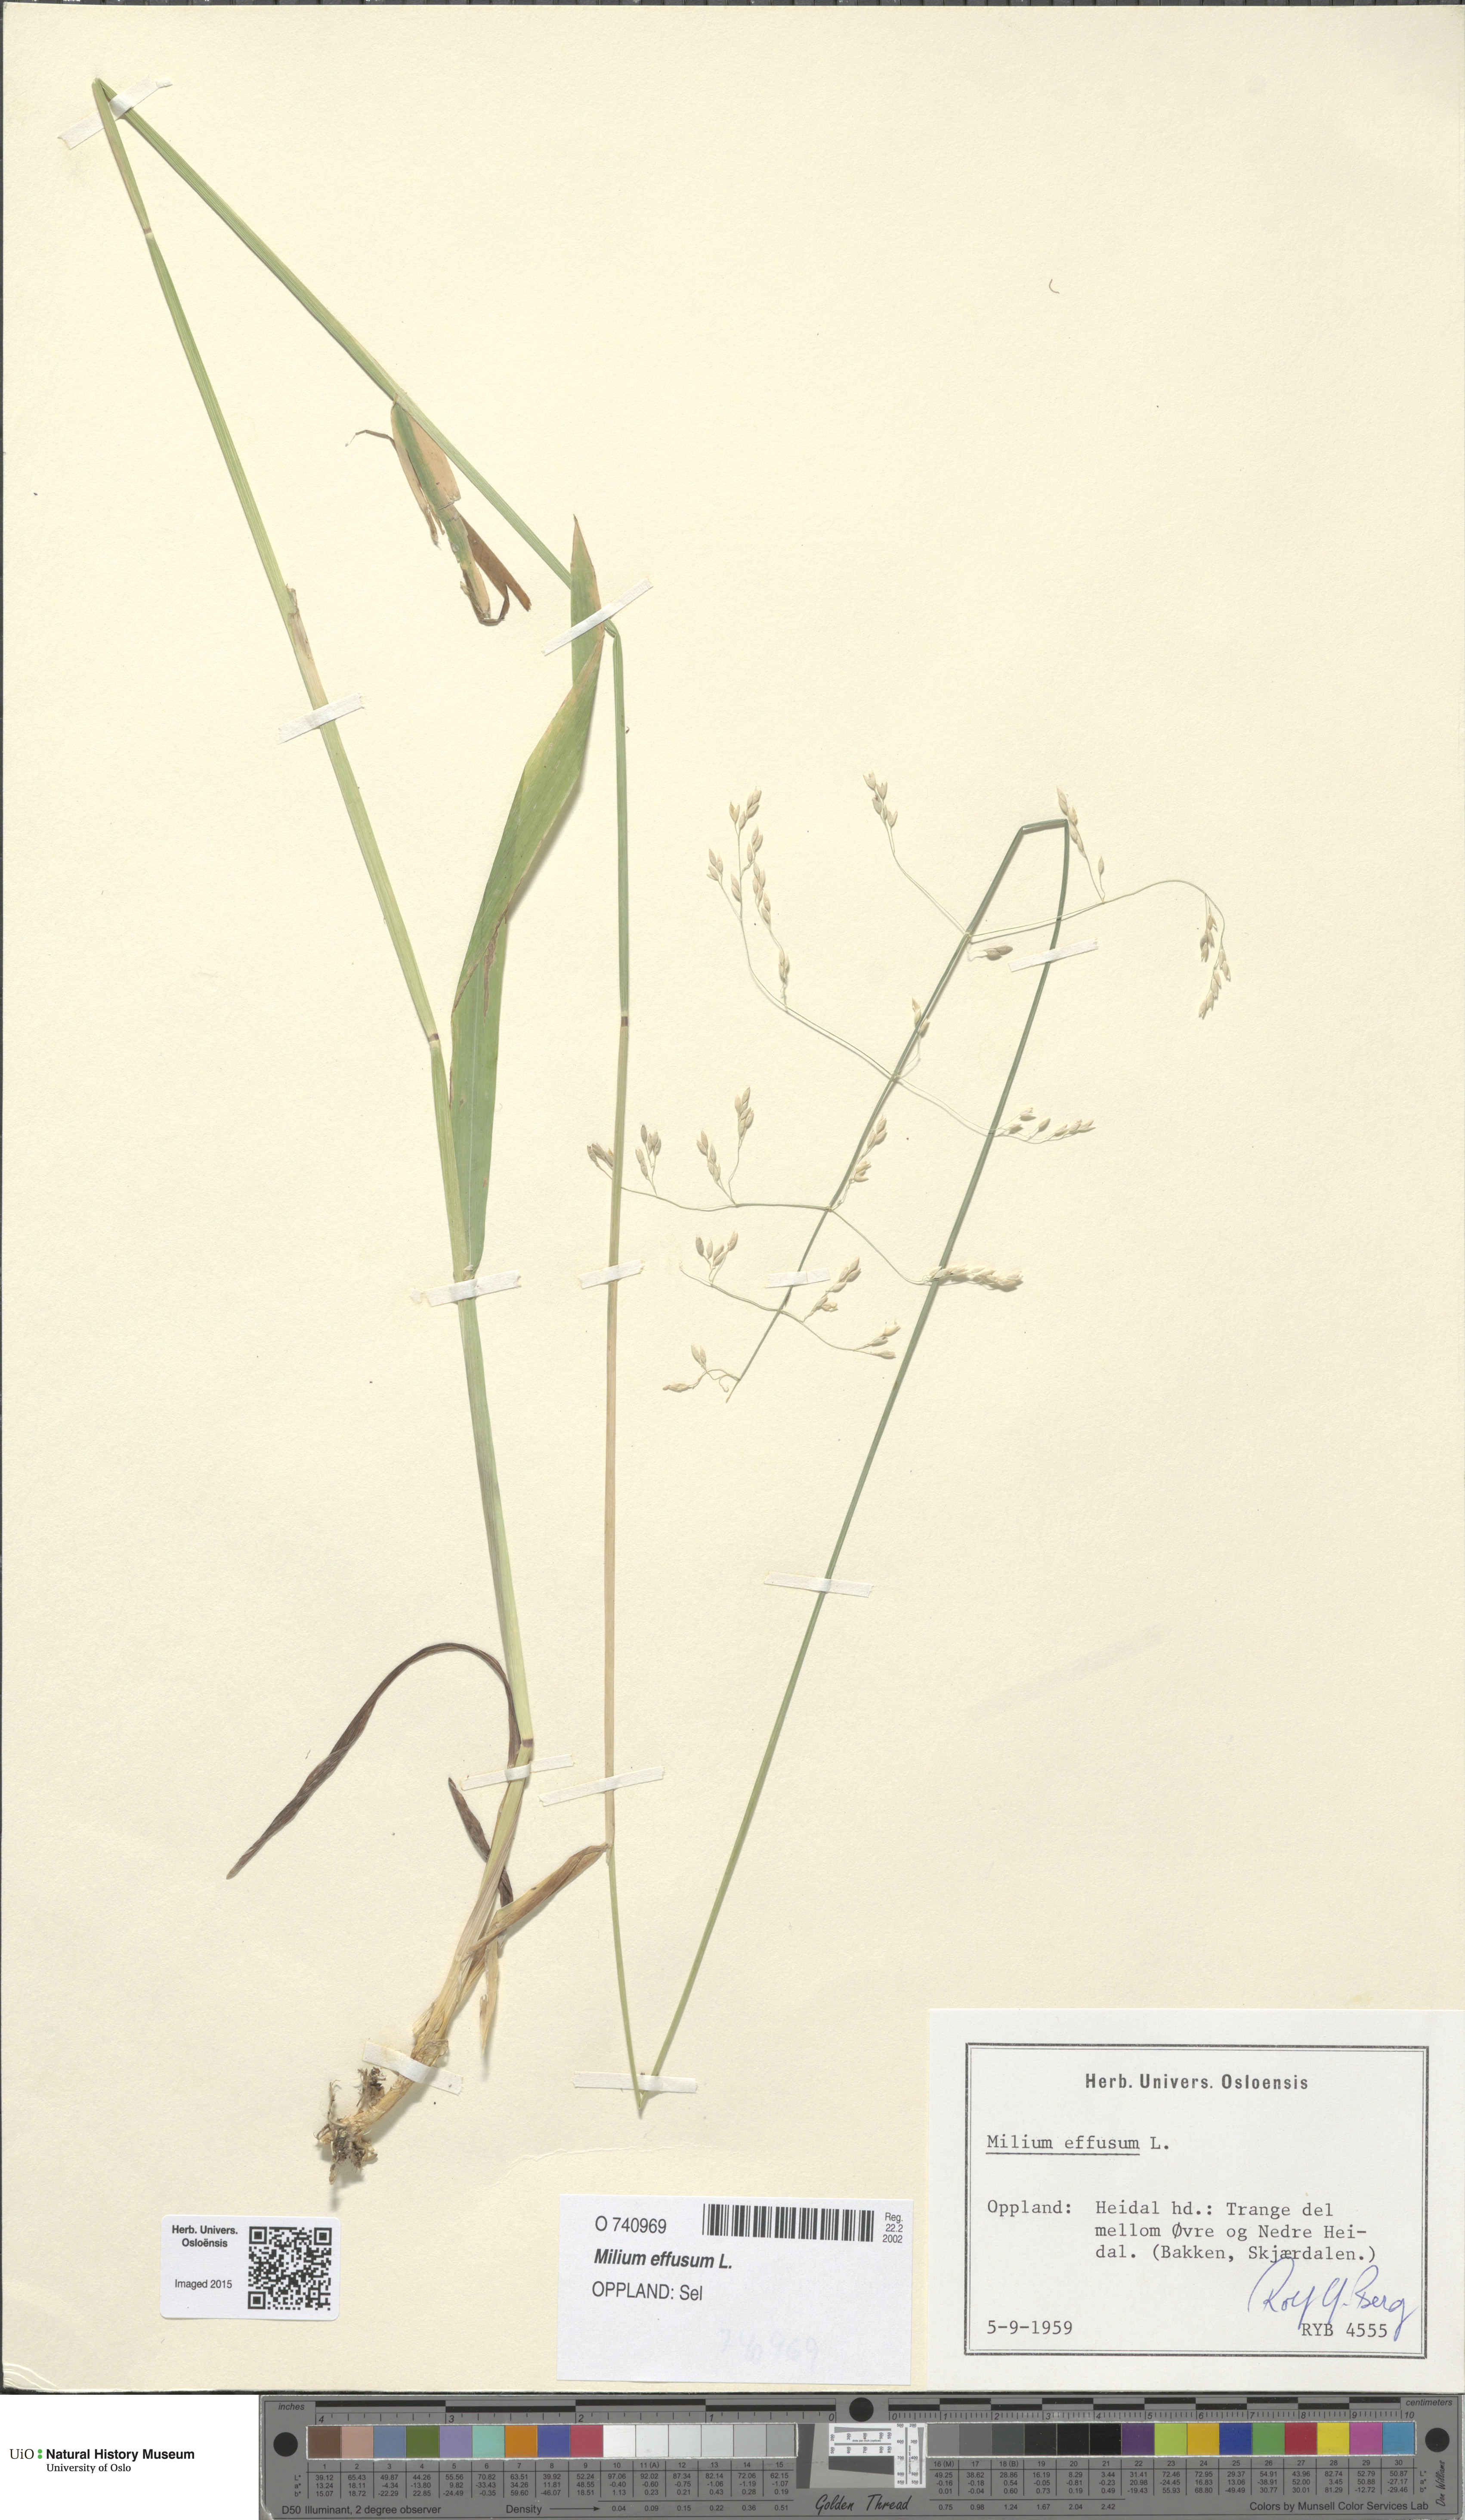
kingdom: Plantae
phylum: Tracheophyta
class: Liliopsida
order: Poales
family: Poaceae
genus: Milium
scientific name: Milium effusum
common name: Wood millet
